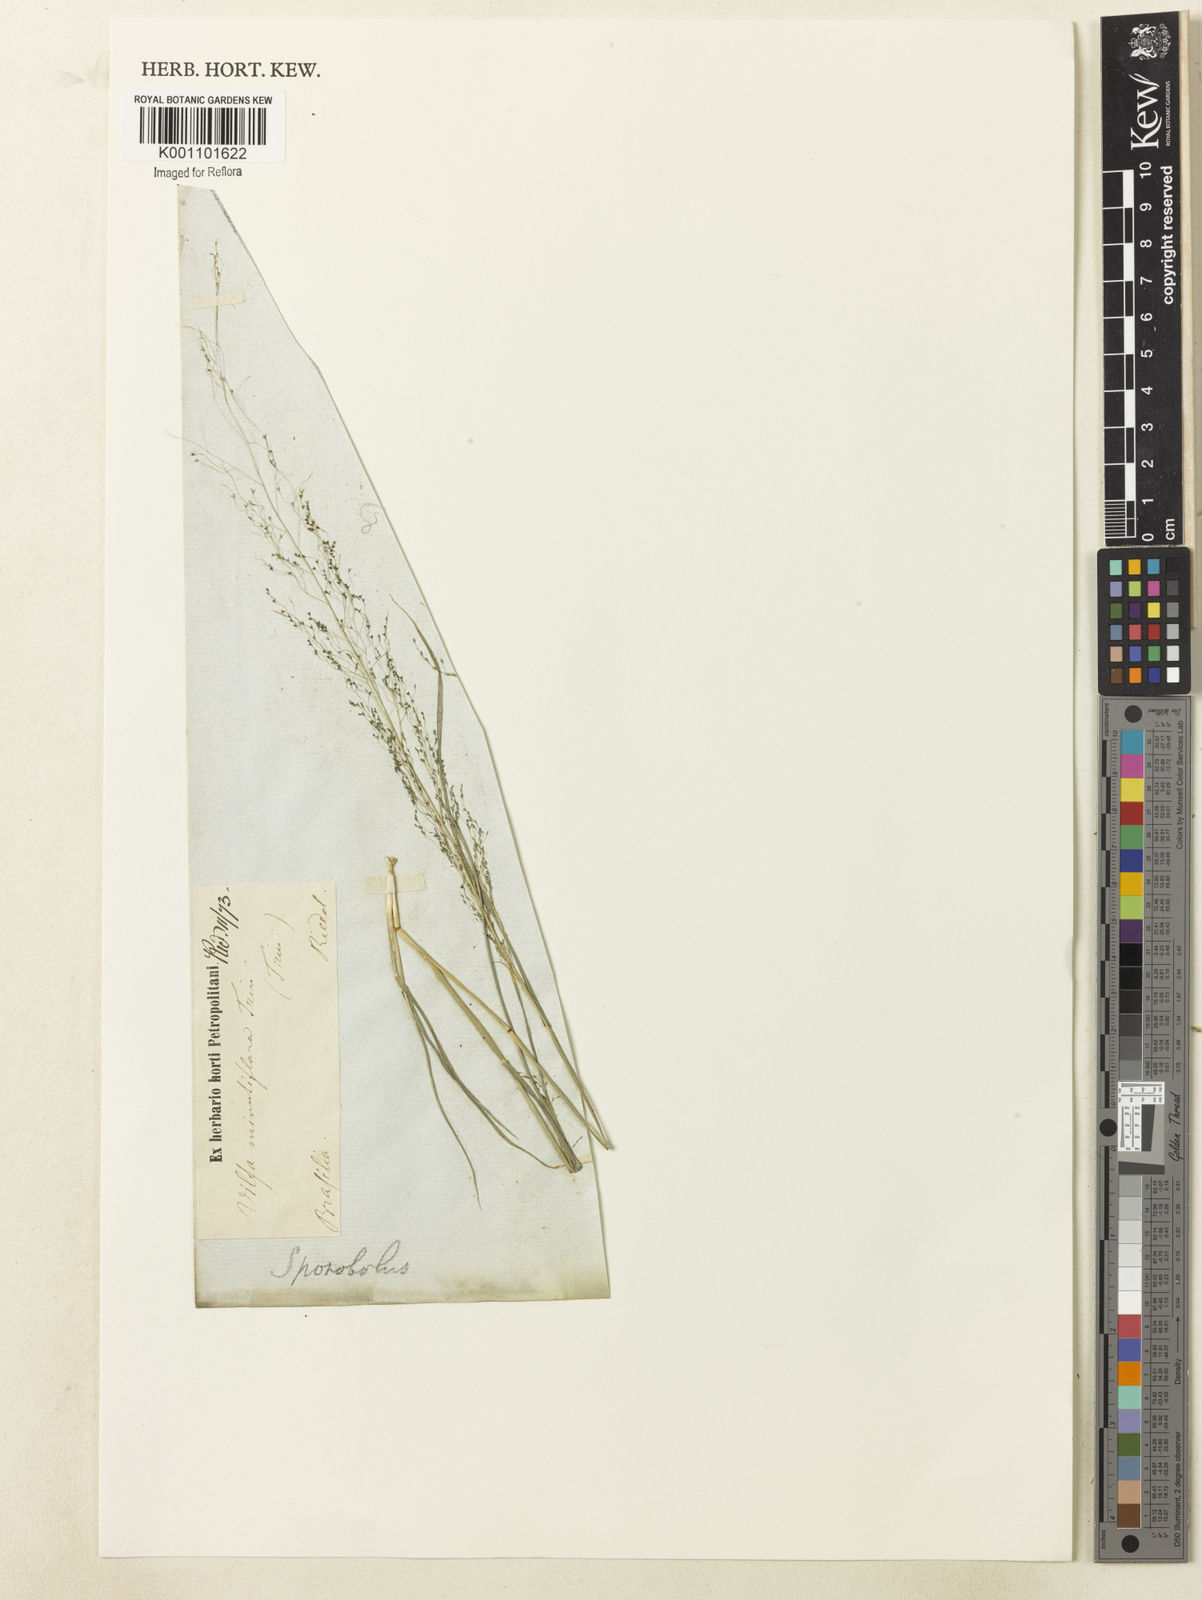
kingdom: Plantae
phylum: Tracheophyta
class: Liliopsida
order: Poales
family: Poaceae
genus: Sporobolus
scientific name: Sporobolus tenuissimus
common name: Tropical dropseed
